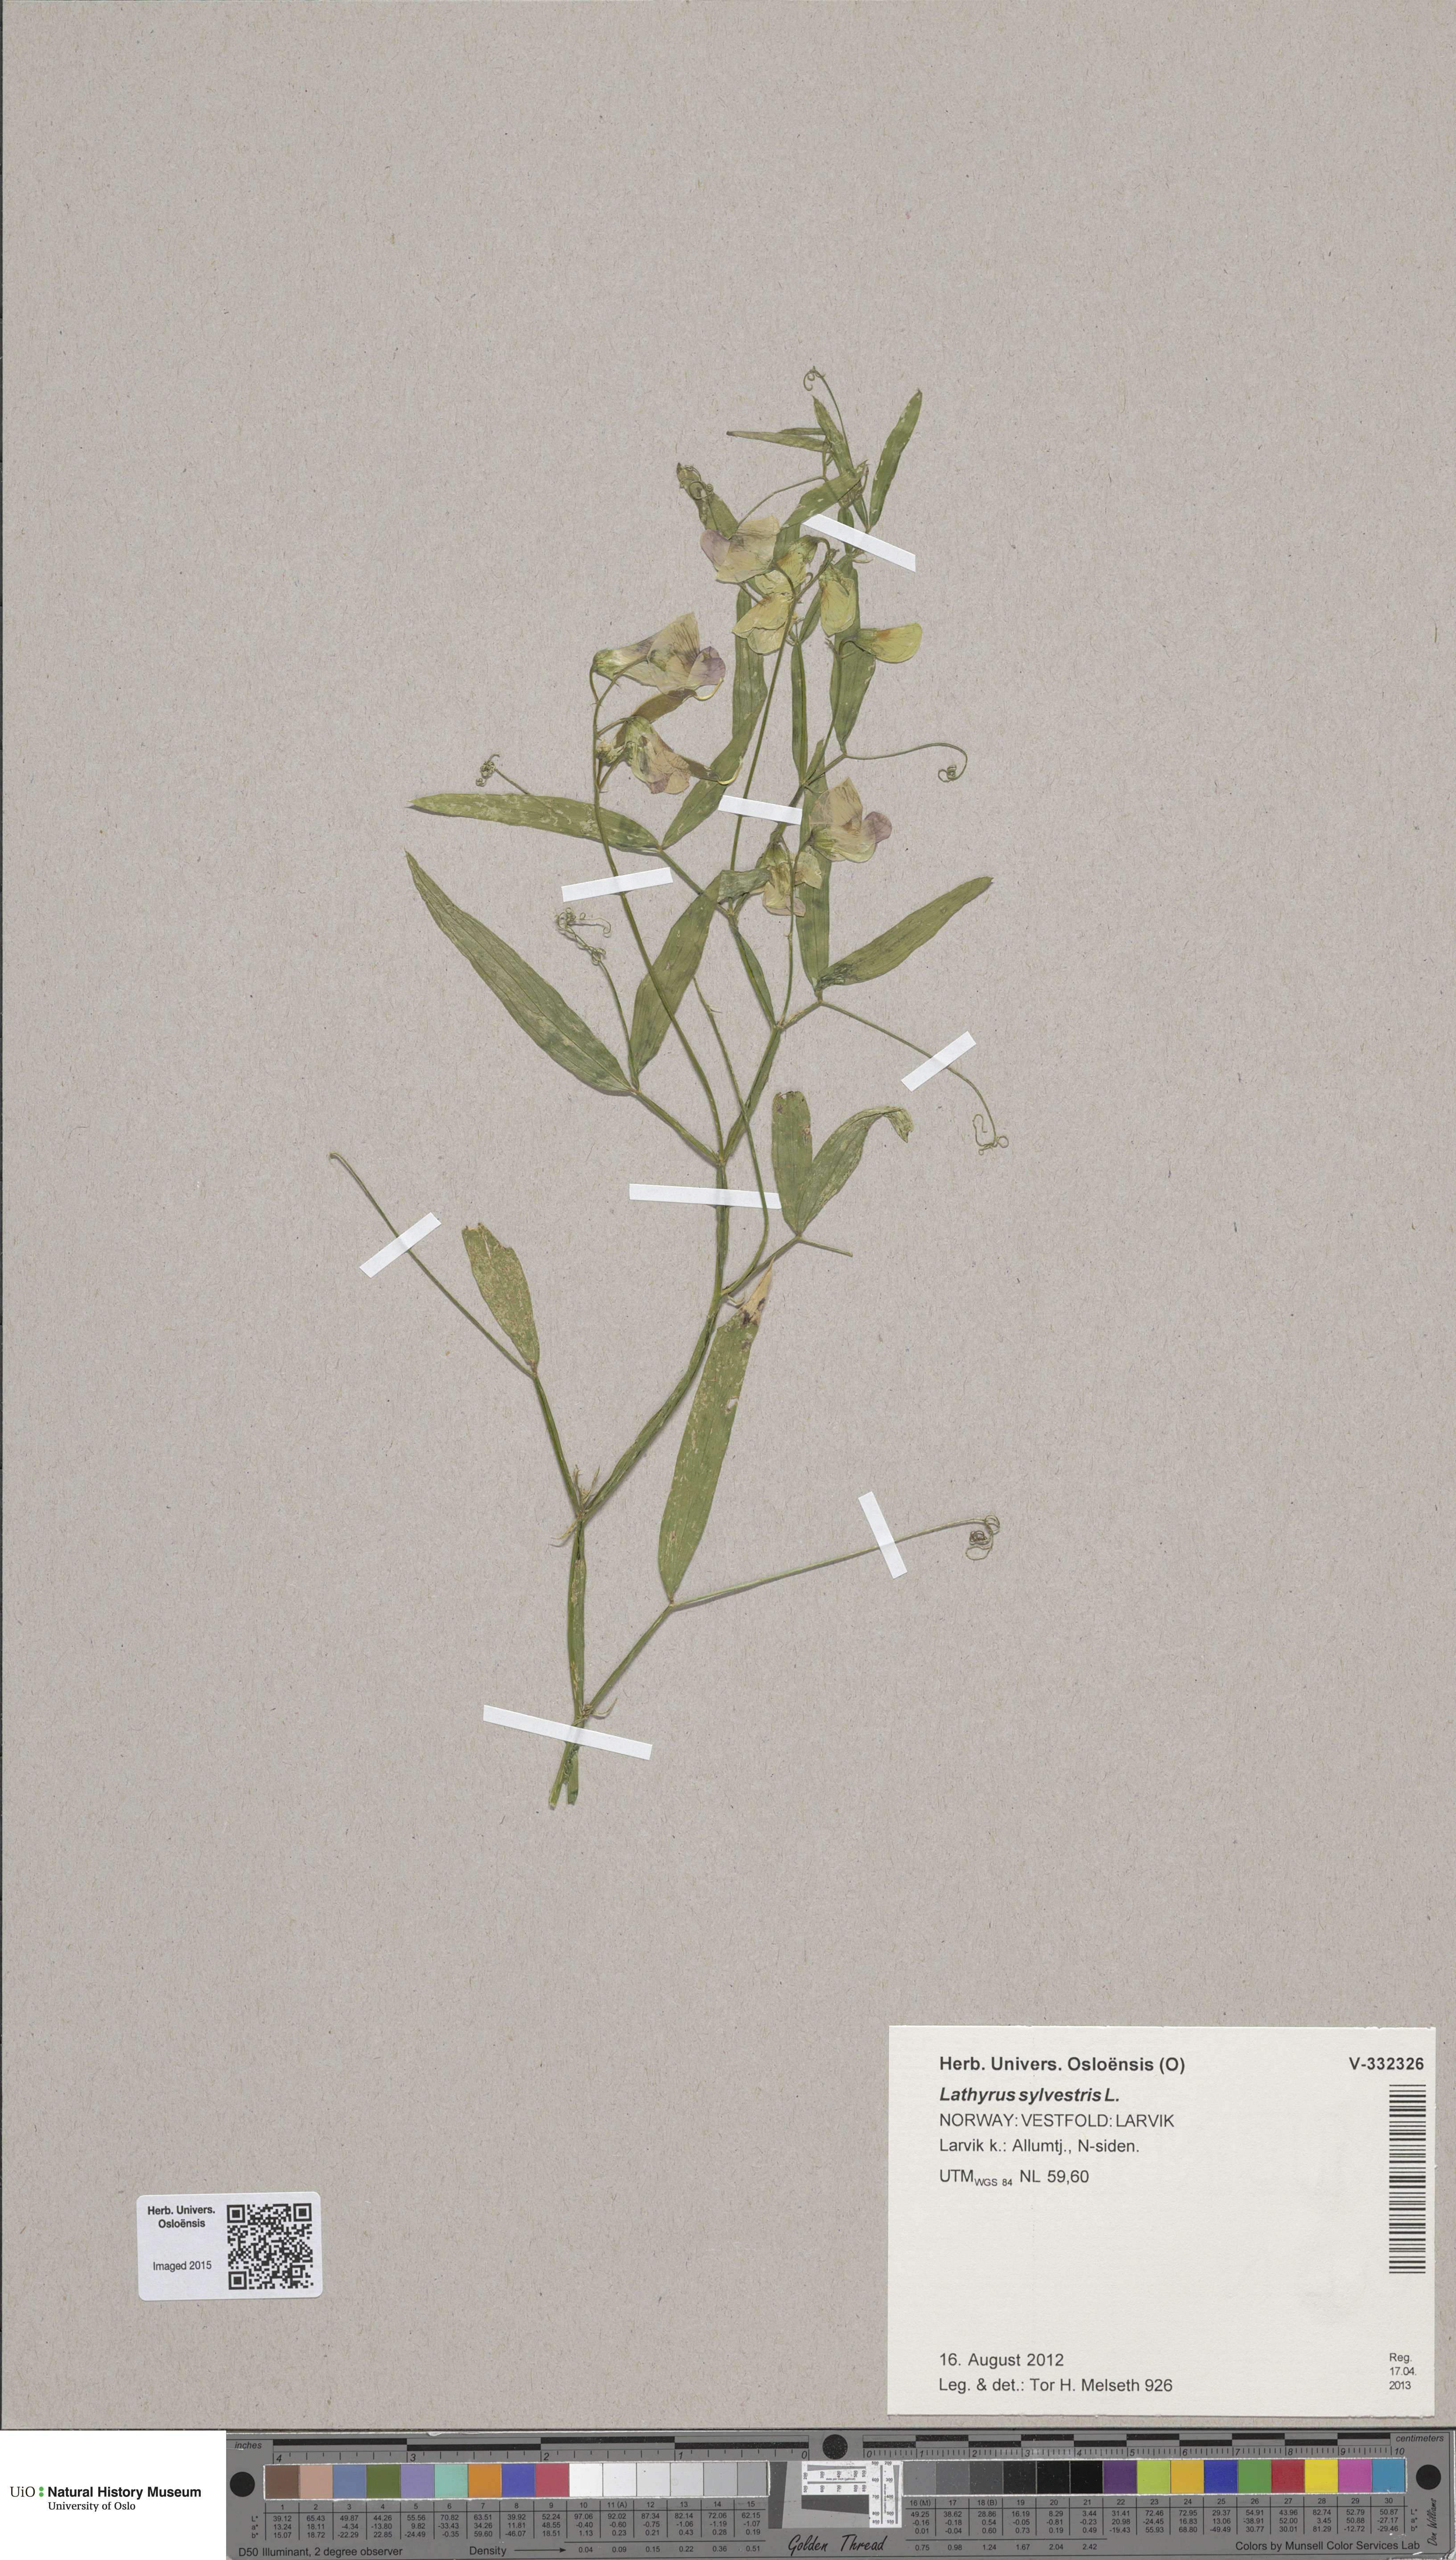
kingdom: Plantae
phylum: Tracheophyta
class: Magnoliopsida
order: Fabales
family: Fabaceae
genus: Lathyrus
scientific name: Lathyrus sylvestris
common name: Flat pea
